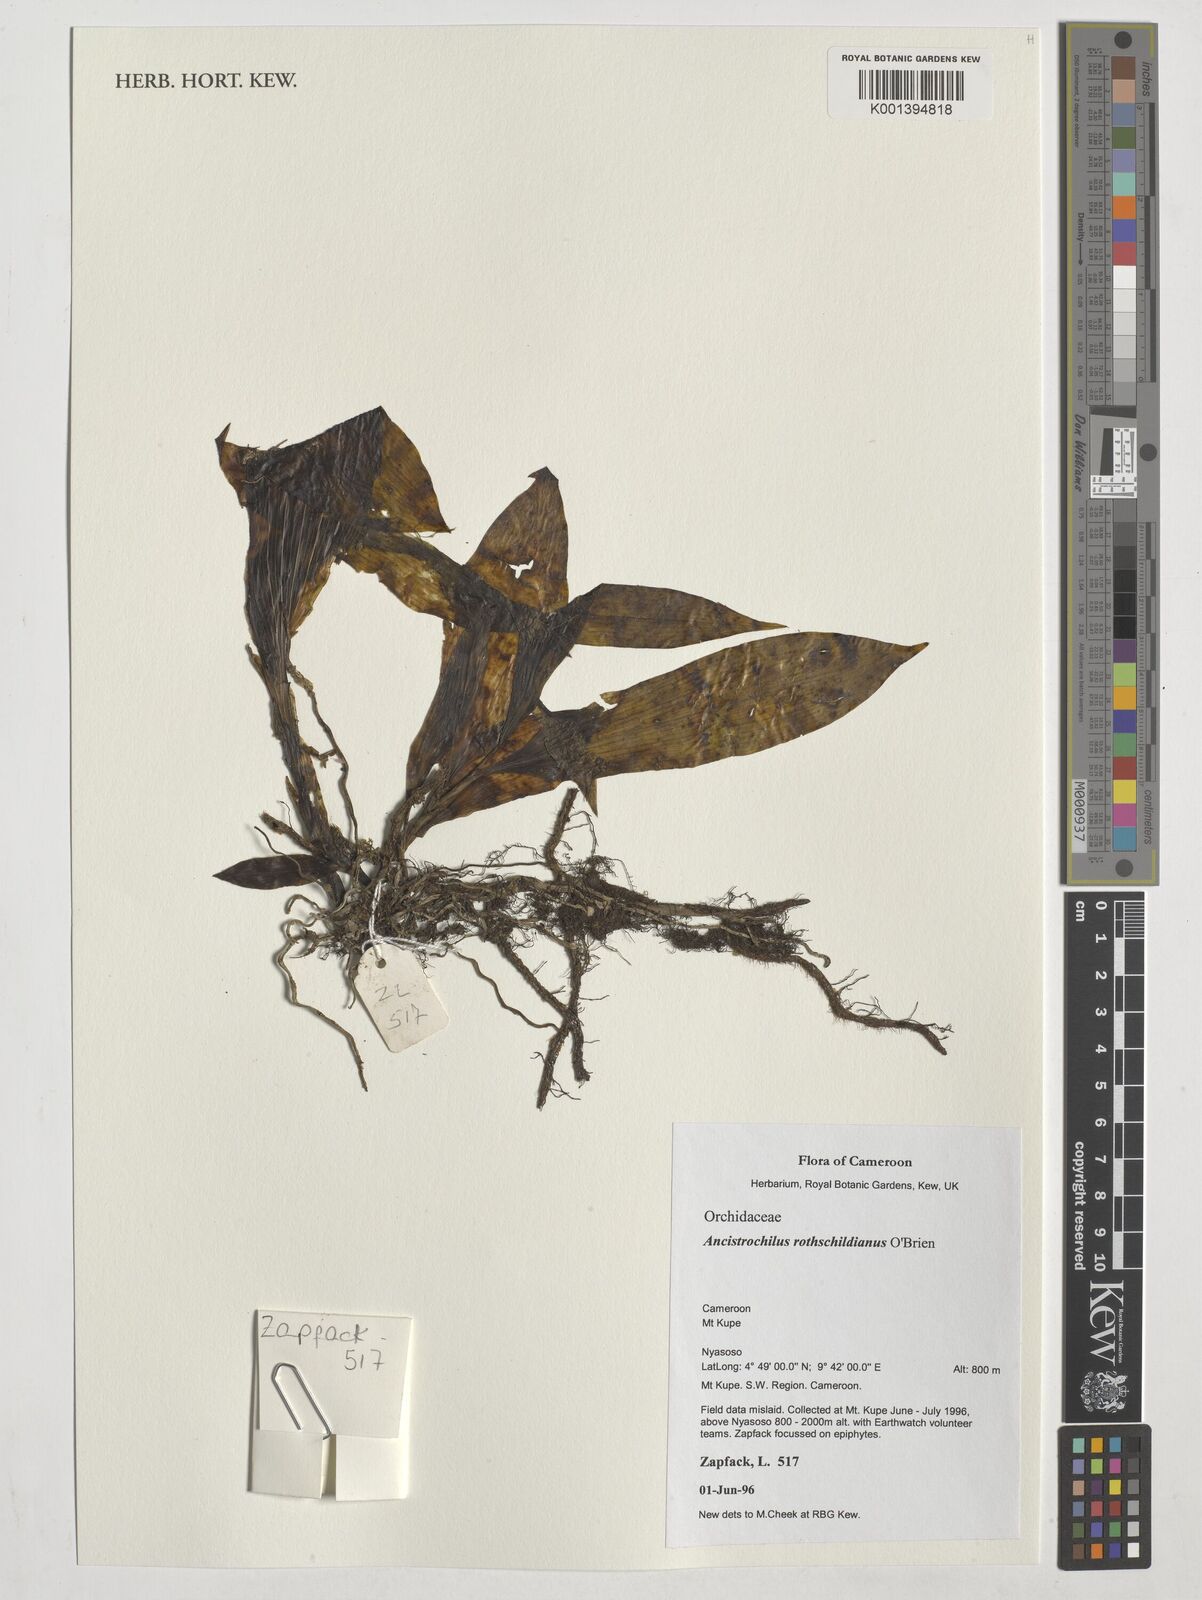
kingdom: Plantae
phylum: Tracheophyta
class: Liliopsida
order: Asparagales
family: Orchidaceae
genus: Ancistrochilus
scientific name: Ancistrochilus rothschildianus
